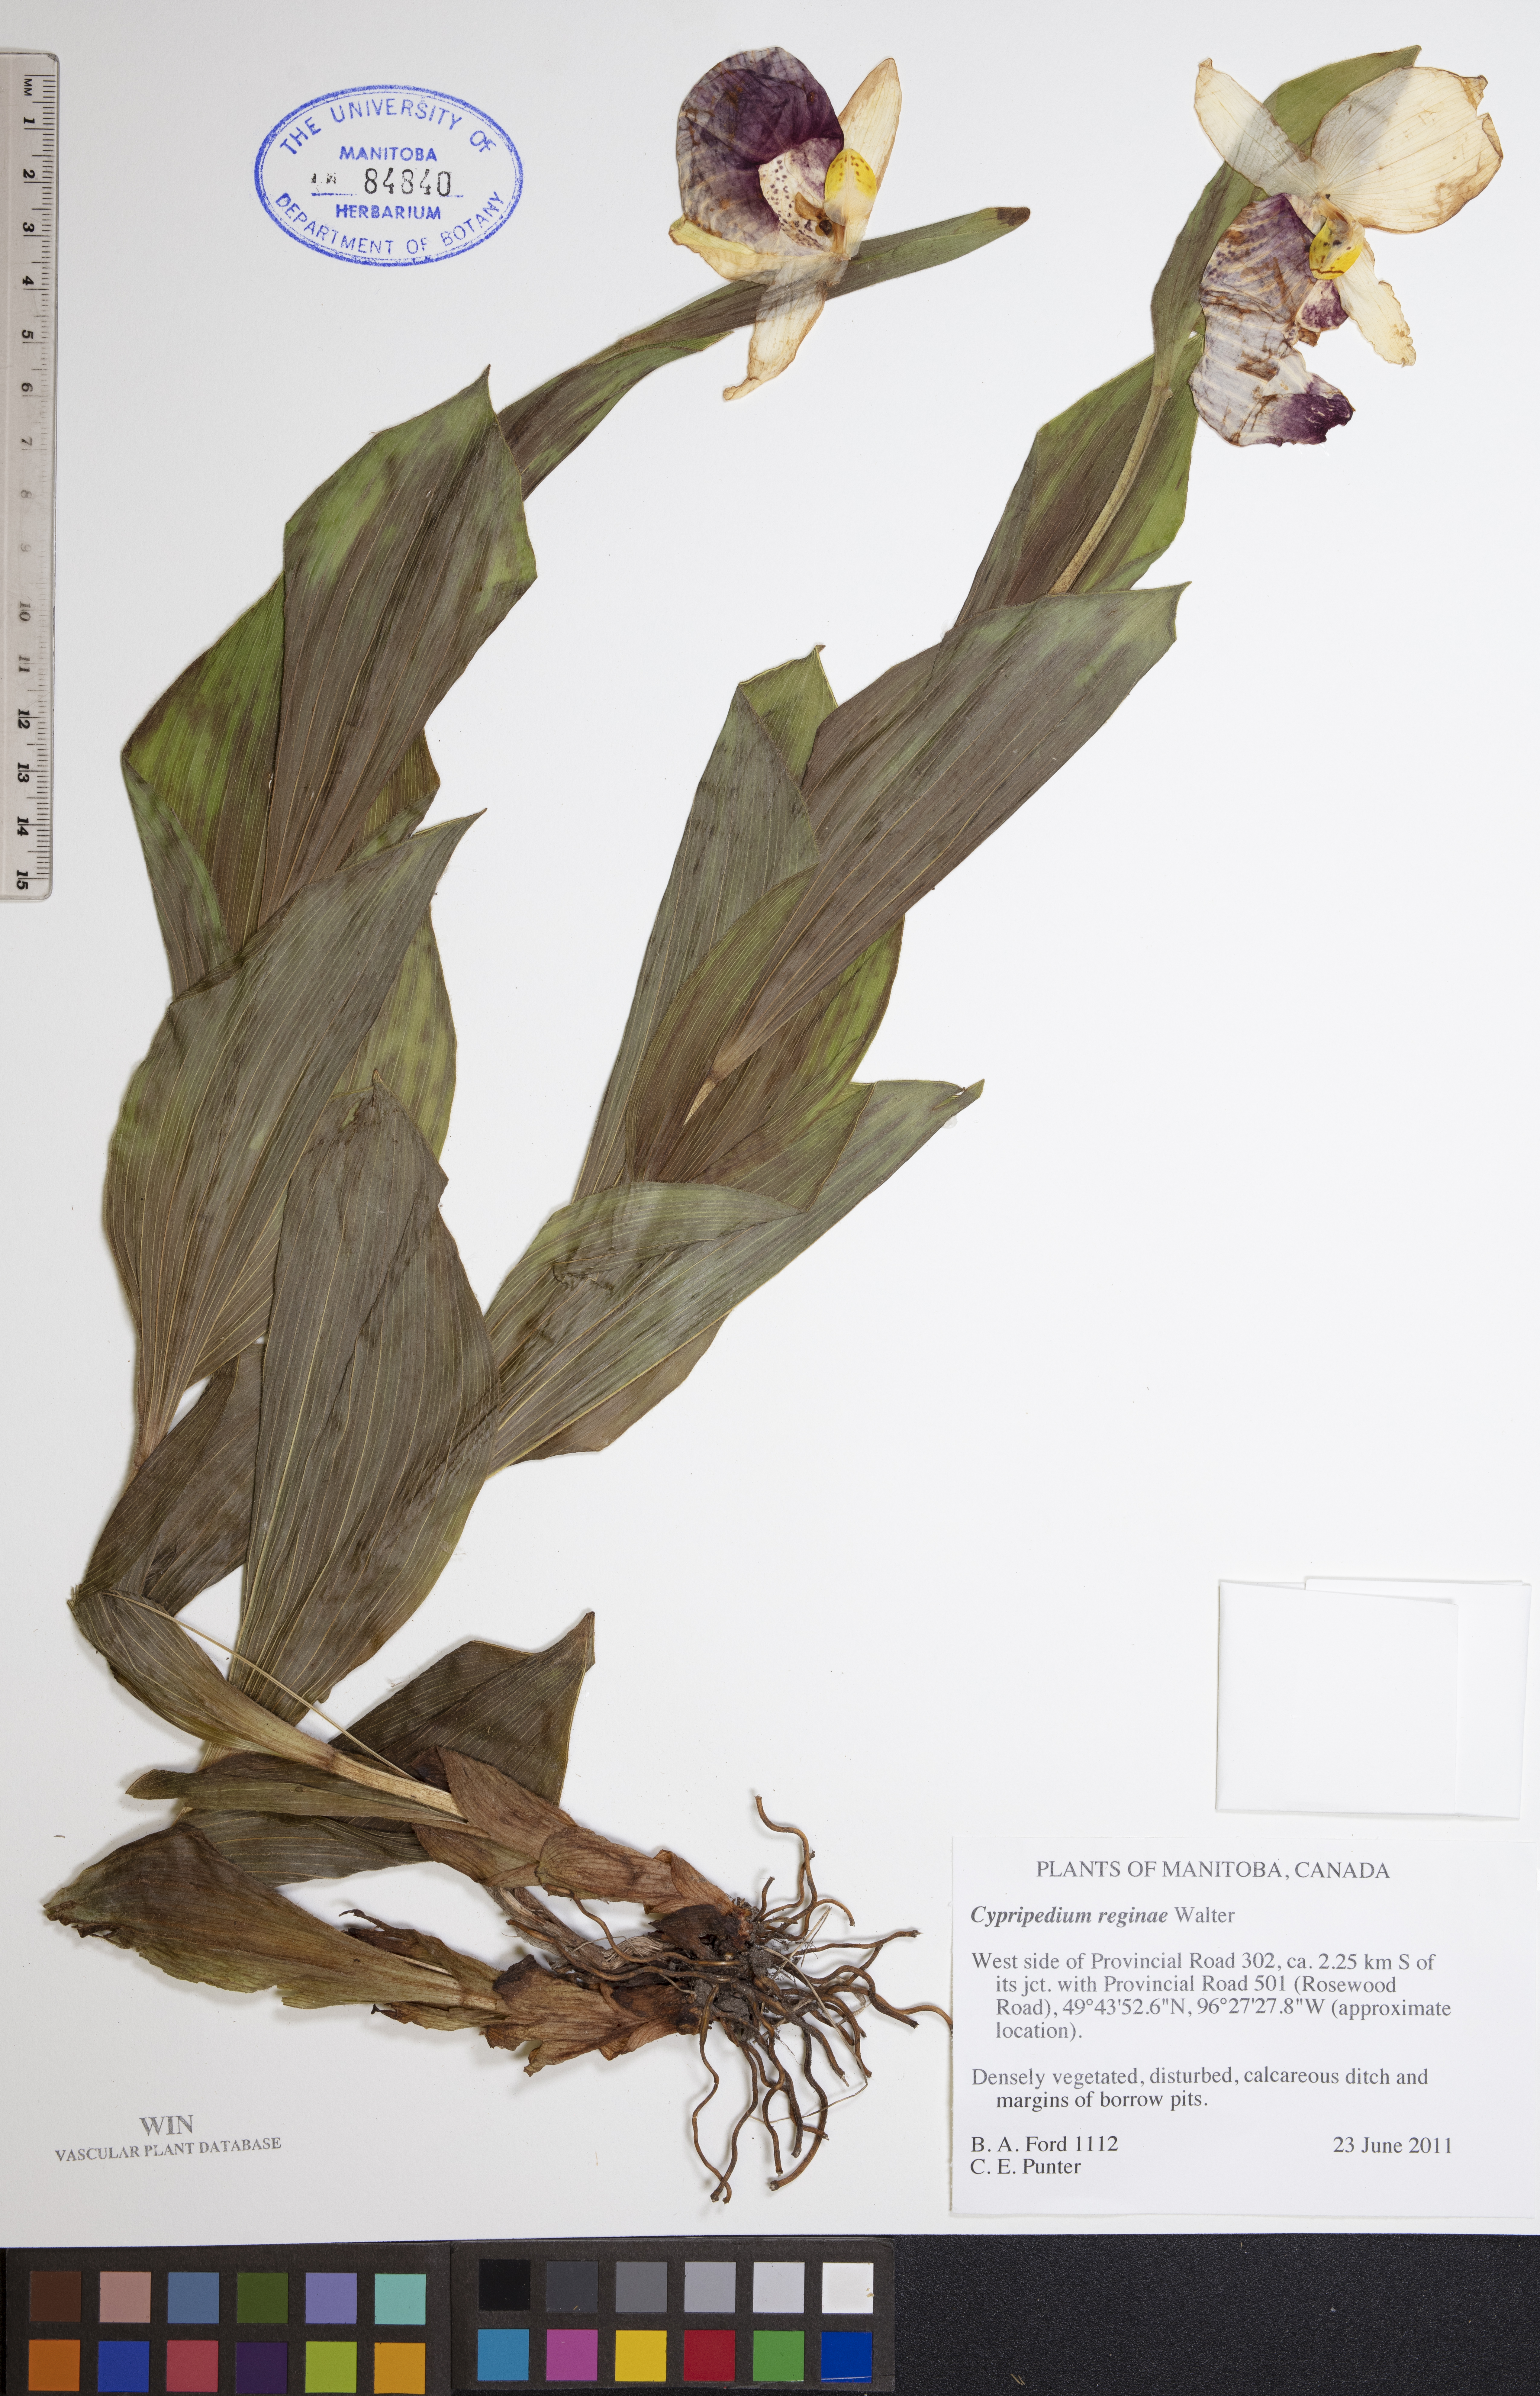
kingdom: Plantae
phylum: Tracheophyta
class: Liliopsida
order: Asparagales
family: Orchidaceae
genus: Cypripedium
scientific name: Cypripedium reginae
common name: Queen lady's-slipper
